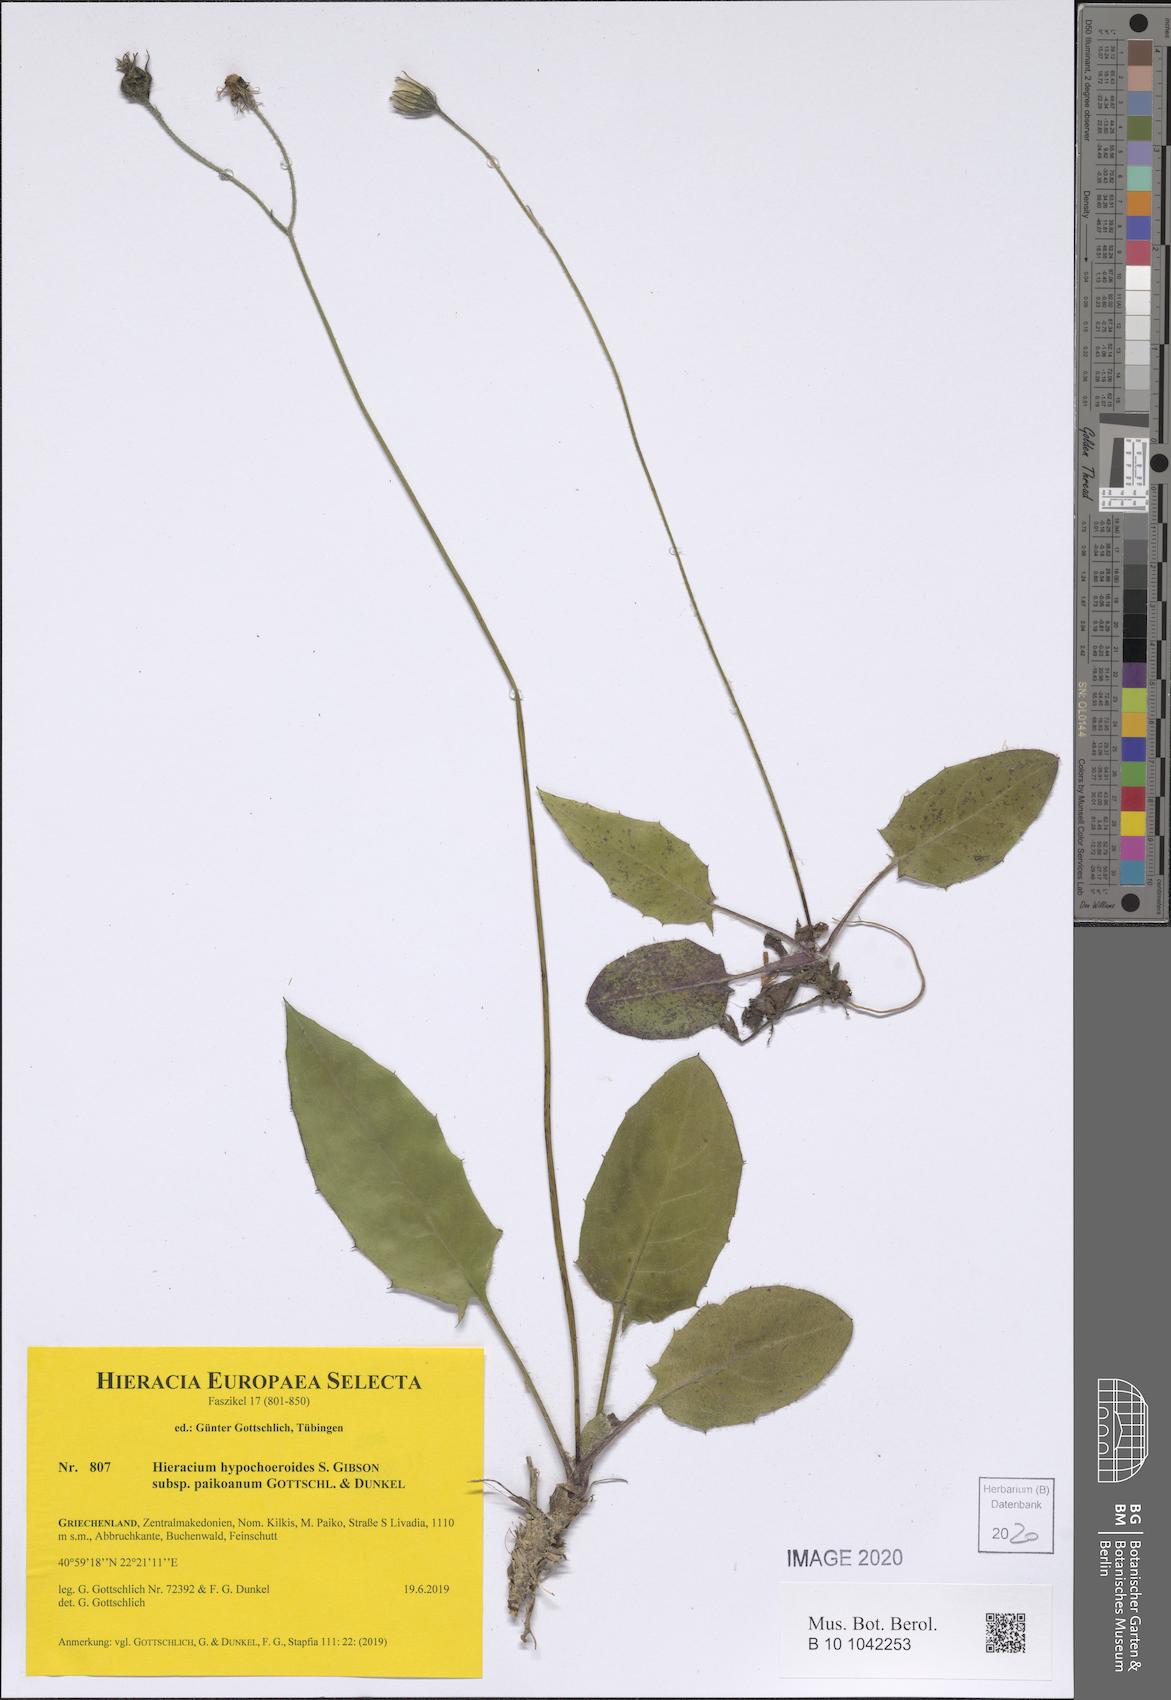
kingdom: Plantae
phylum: Tracheophyta
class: Magnoliopsida
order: Asterales
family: Asteraceae
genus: Hieracium
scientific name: Hieracium hypochoeroides
